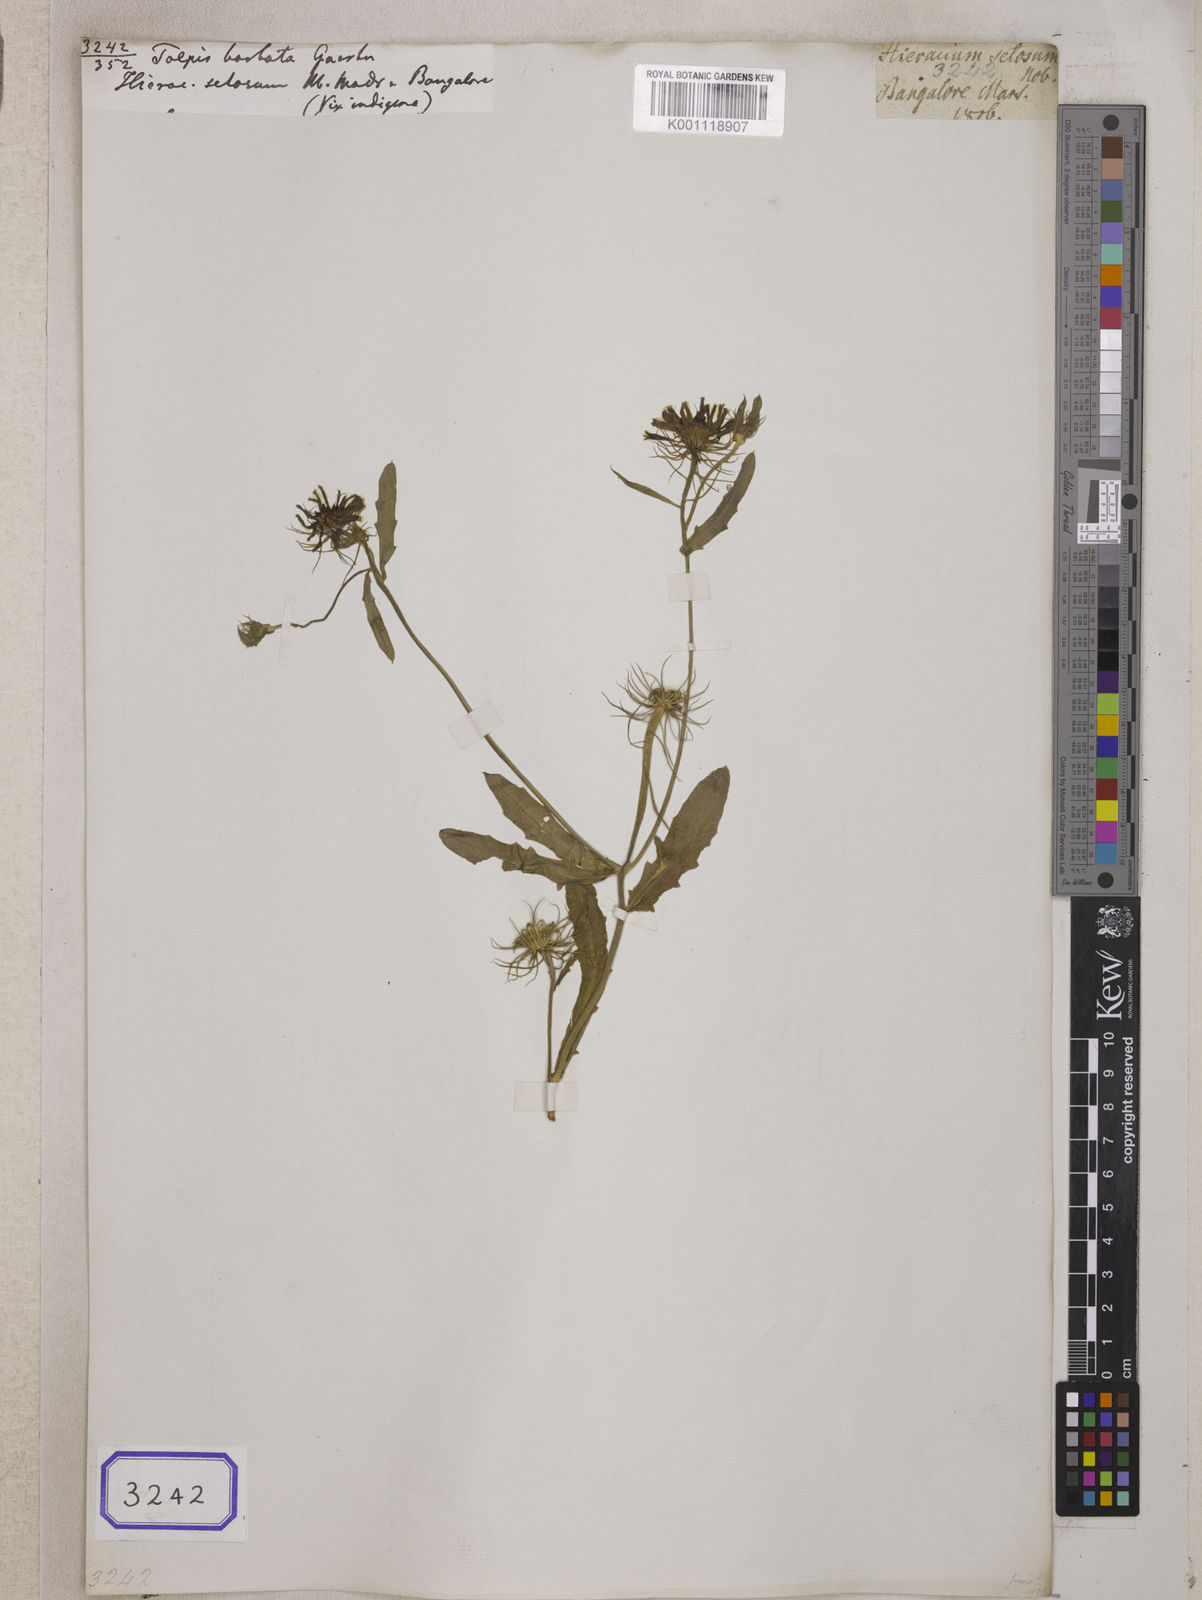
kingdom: Plantae
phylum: Tracheophyta
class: Magnoliopsida
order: Asterales
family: Asteraceae
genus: Tolpis
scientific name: Tolpis barbata
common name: Yellow hawkweed
